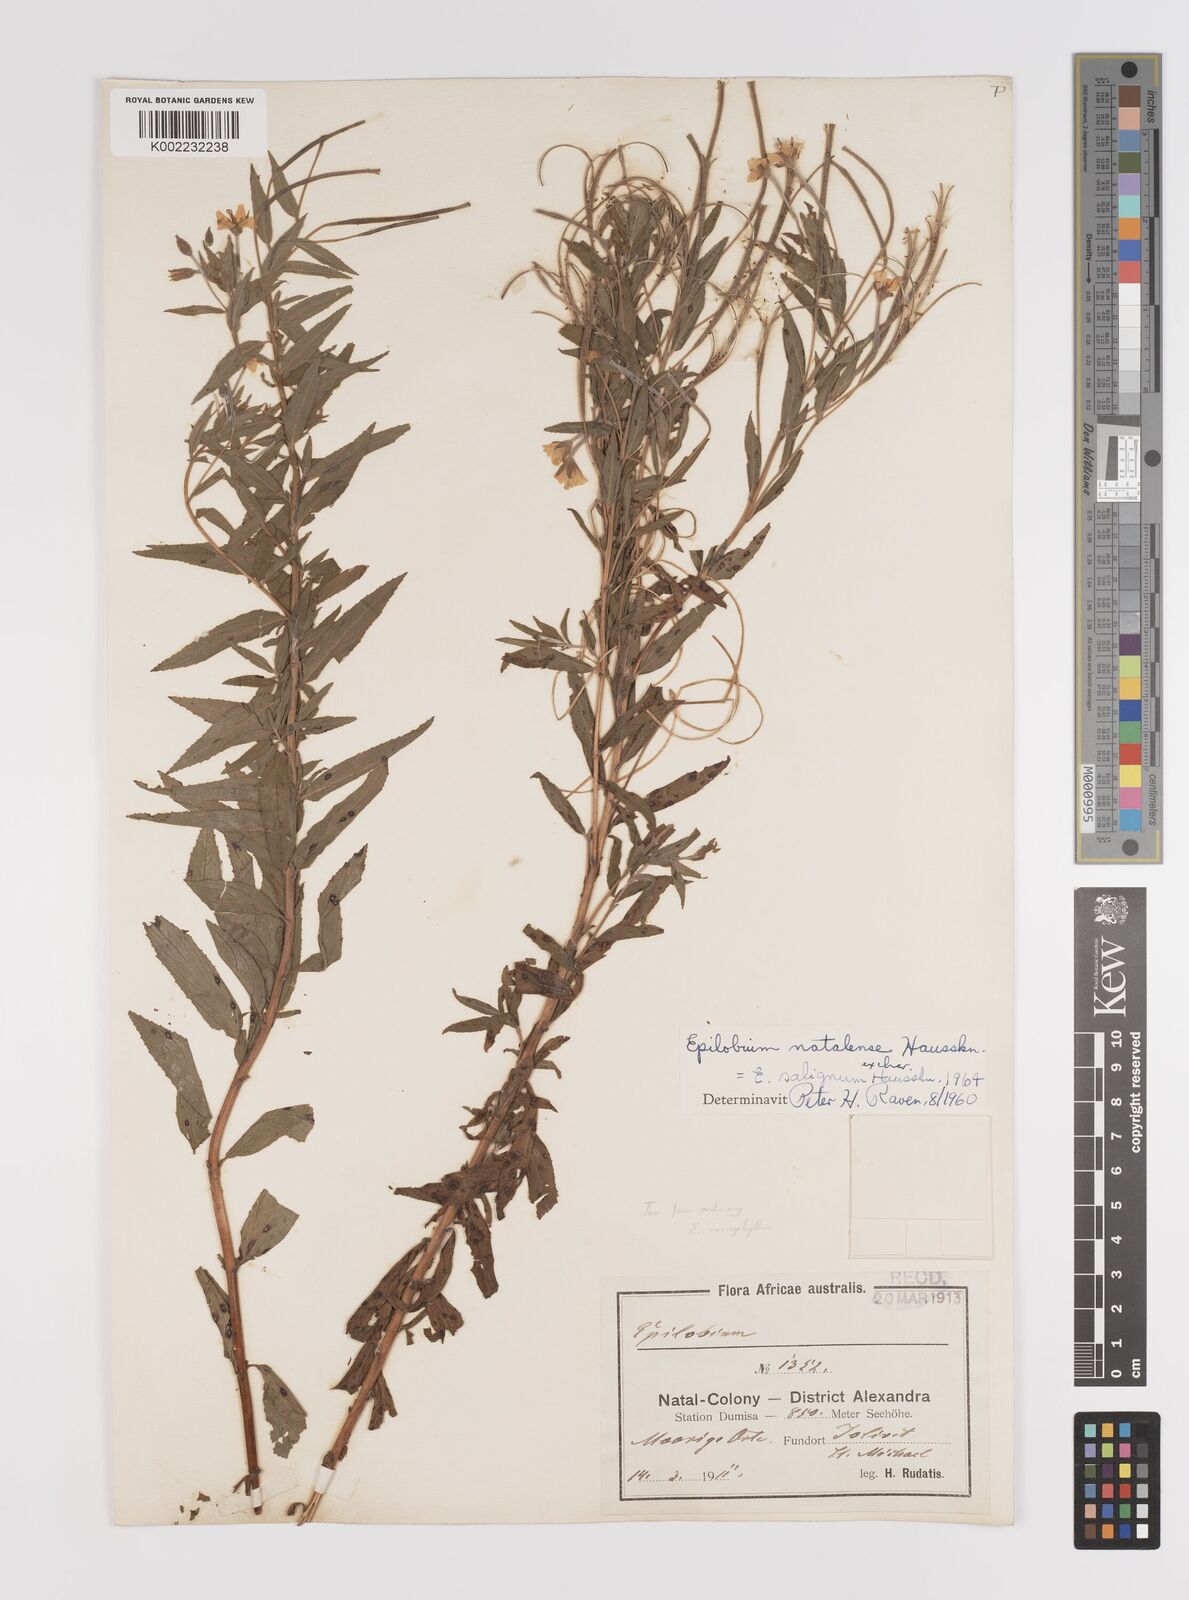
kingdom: Plantae
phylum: Tracheophyta
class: Magnoliopsida
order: Myrtales
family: Onagraceae
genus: Epilobium
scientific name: Epilobium salignum
